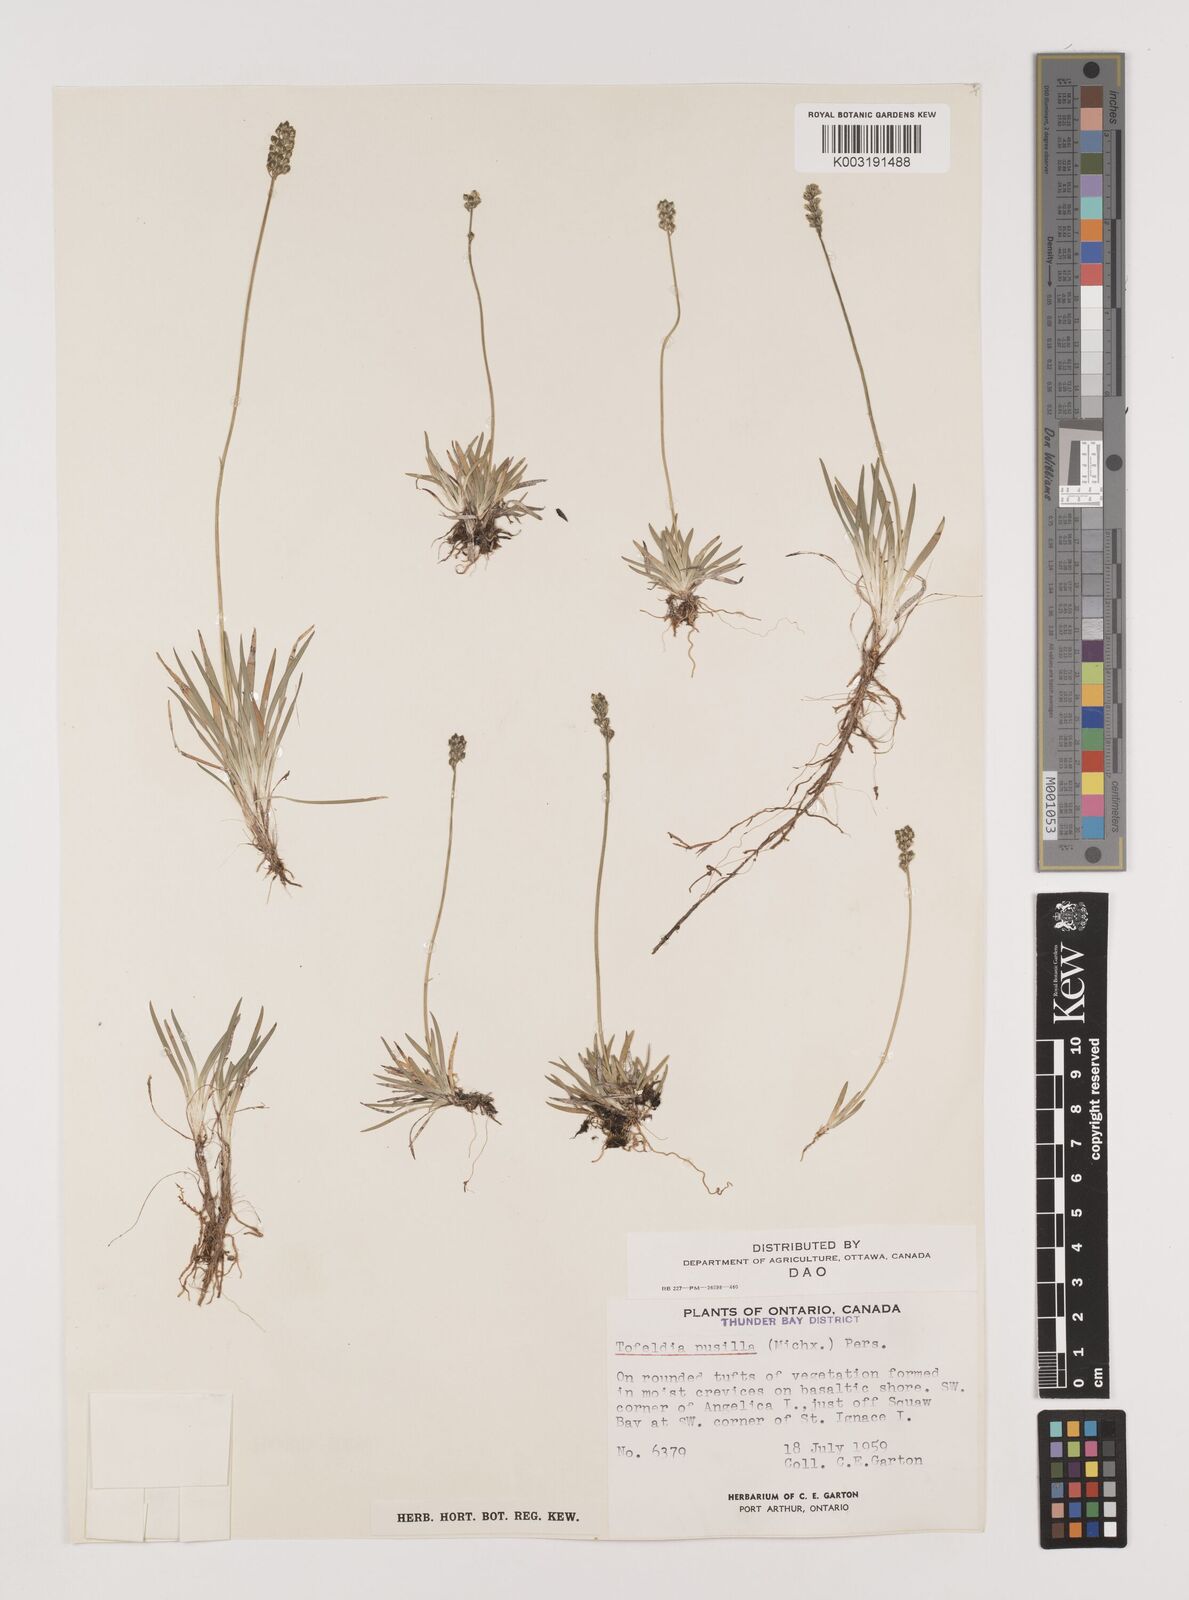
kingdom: Plantae
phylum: Tracheophyta
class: Liliopsida
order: Alismatales
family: Tofieldiaceae
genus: Tofieldia
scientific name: Tofieldia pusilla
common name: Scottish false asphodel
